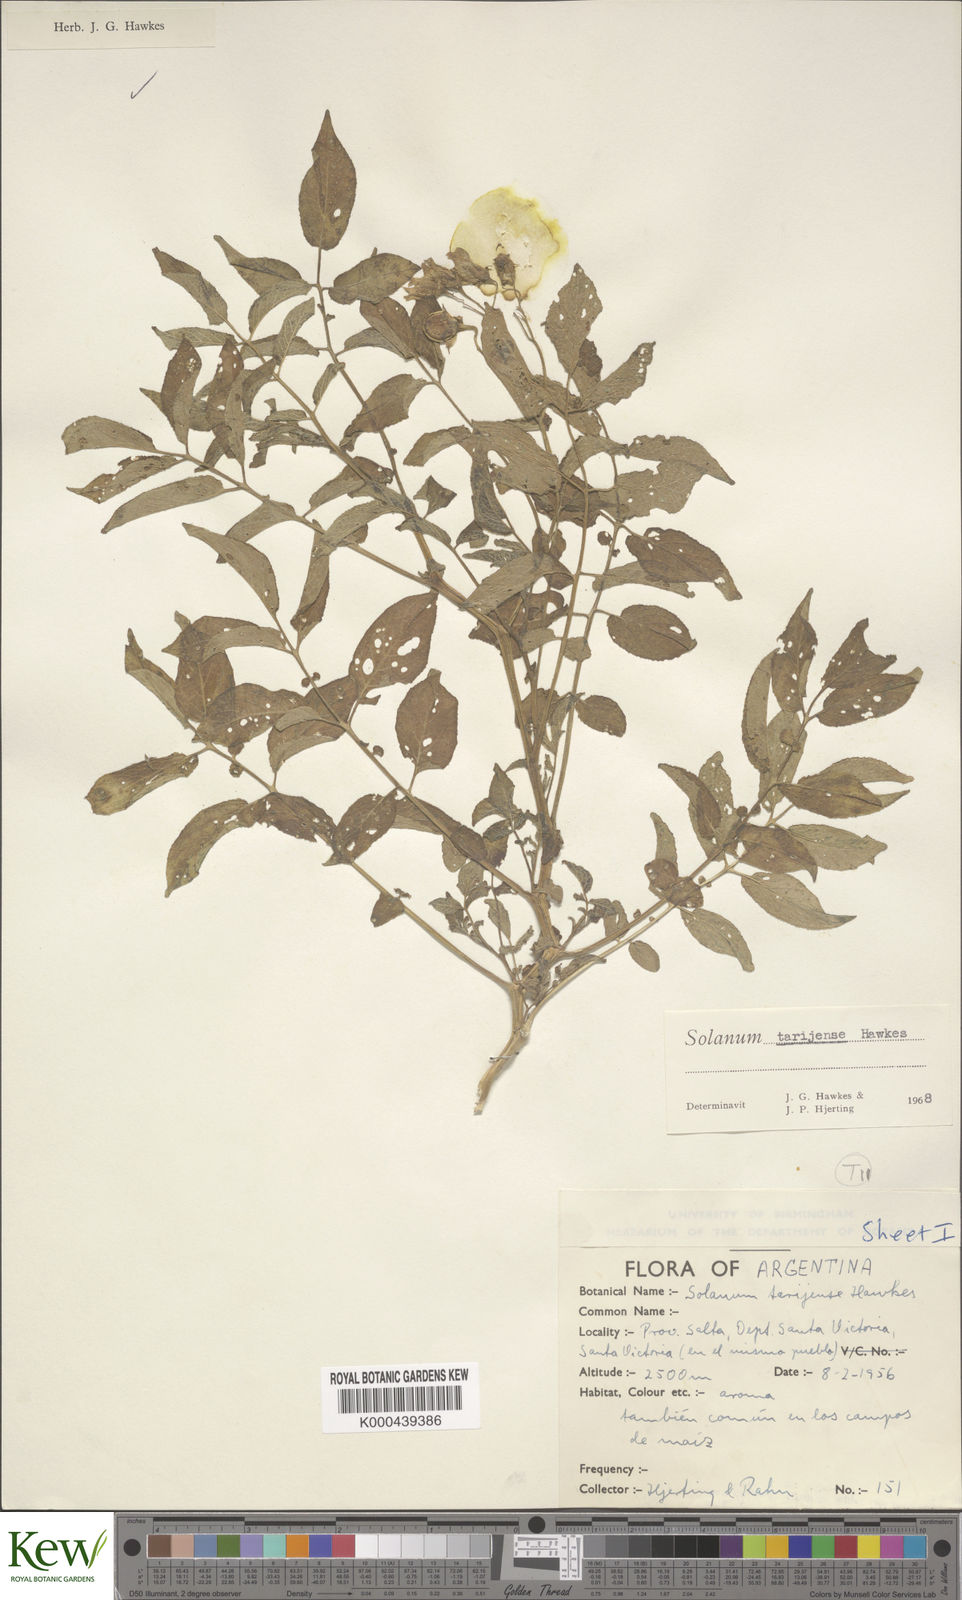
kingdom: Plantae
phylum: Tracheophyta
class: Magnoliopsida
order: Solanales
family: Solanaceae
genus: Solanum
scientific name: Solanum tarijense
